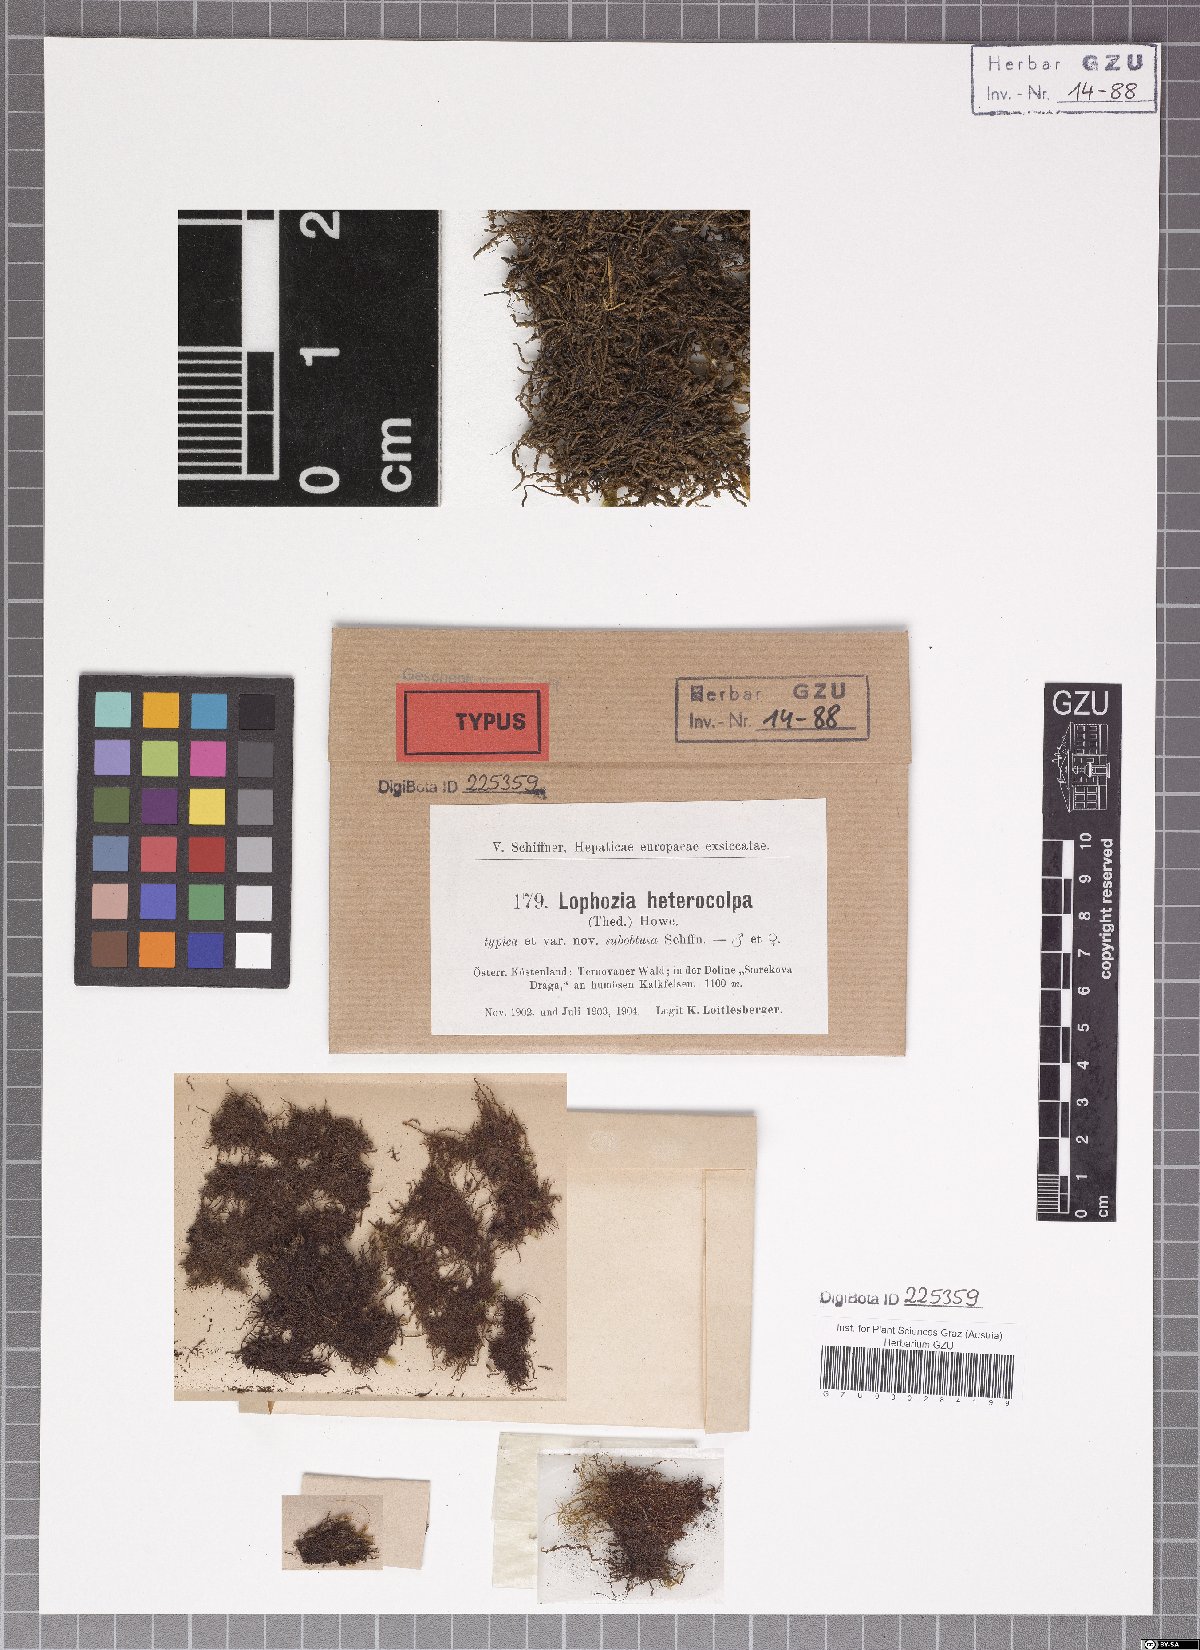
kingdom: Plantae
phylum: Marchantiophyta
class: Jungermanniopsida
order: Jungermanniales
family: Jungermanniaceae
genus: Mesoptychia
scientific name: Mesoptychia heterocolpos
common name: Ragged notchwort
